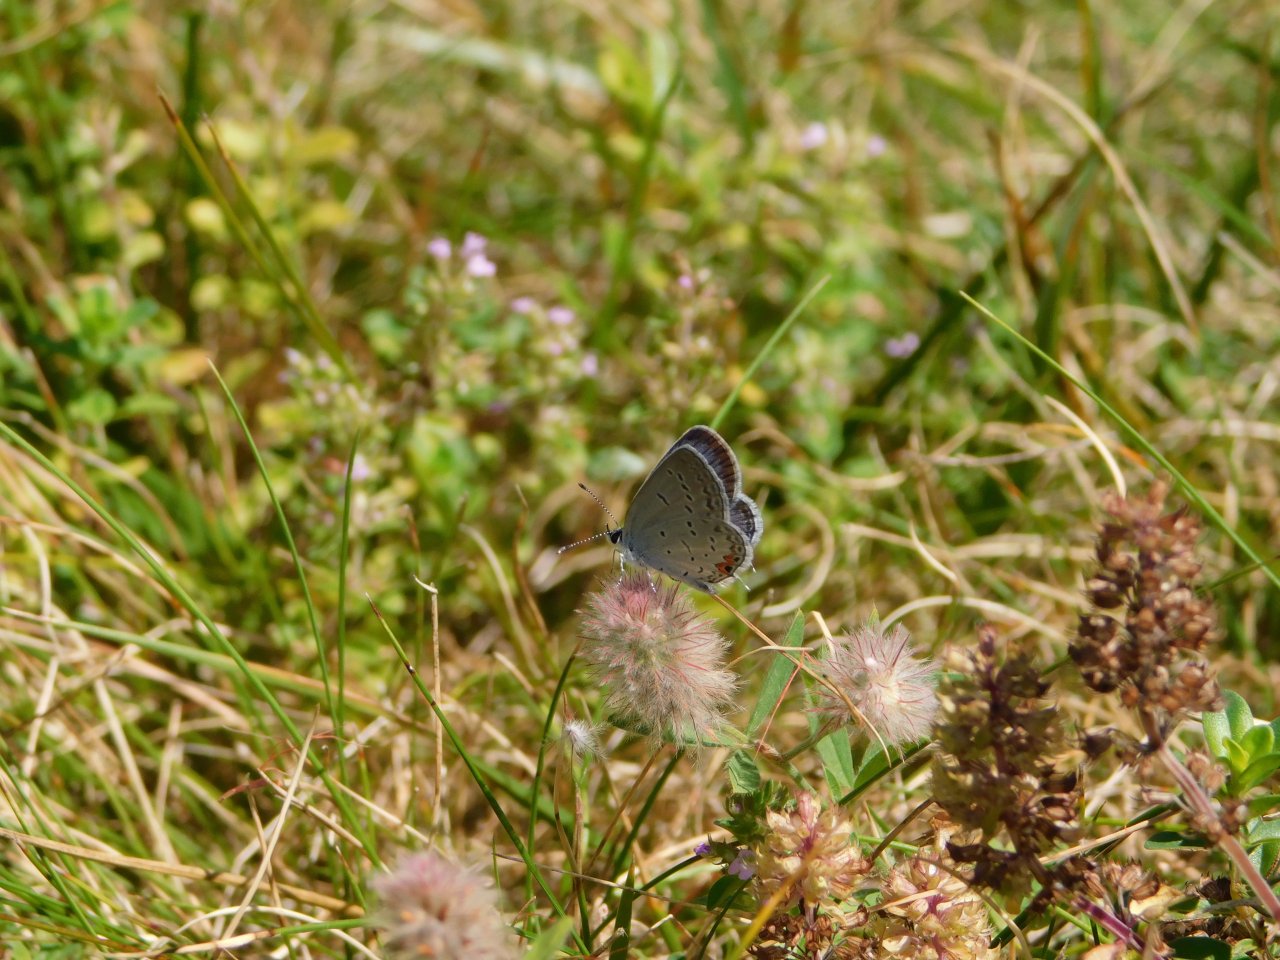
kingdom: Animalia
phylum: Arthropoda
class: Insecta
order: Lepidoptera
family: Lycaenidae
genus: Elkalyce
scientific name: Elkalyce comyntas
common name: Eastern Tailed-Blue
